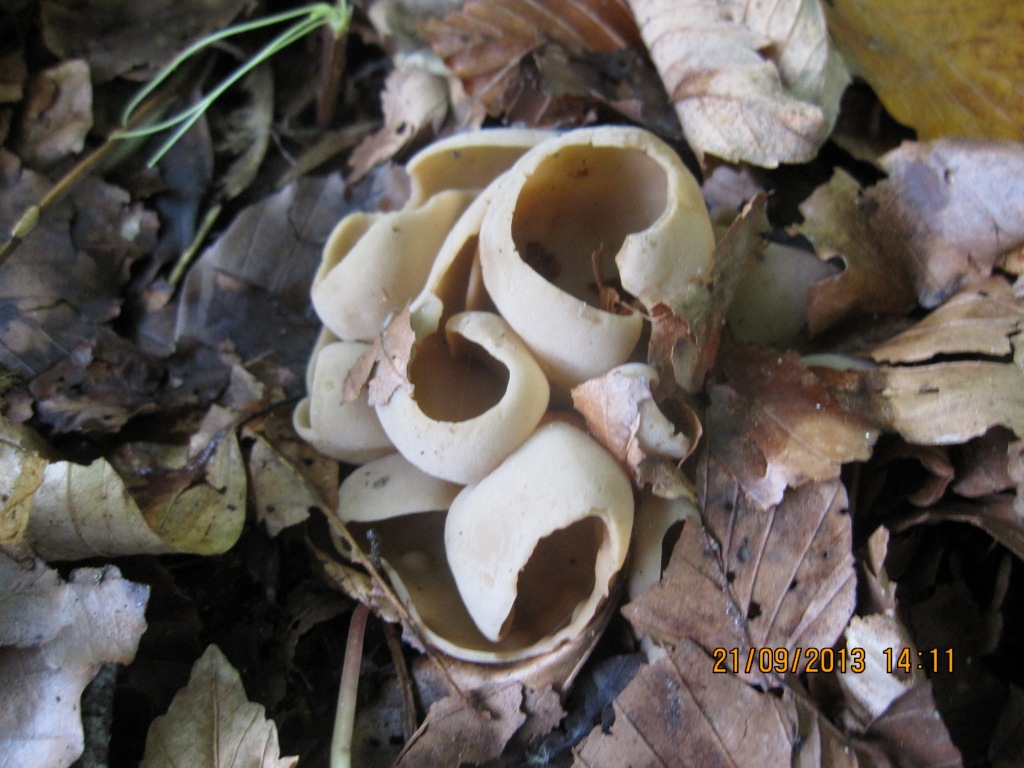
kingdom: Fungi
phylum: Ascomycota
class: Pezizomycetes
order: Pezizales
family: Otideaceae
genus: Otidea
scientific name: Otidea alutacea
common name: læder-ørebæger
